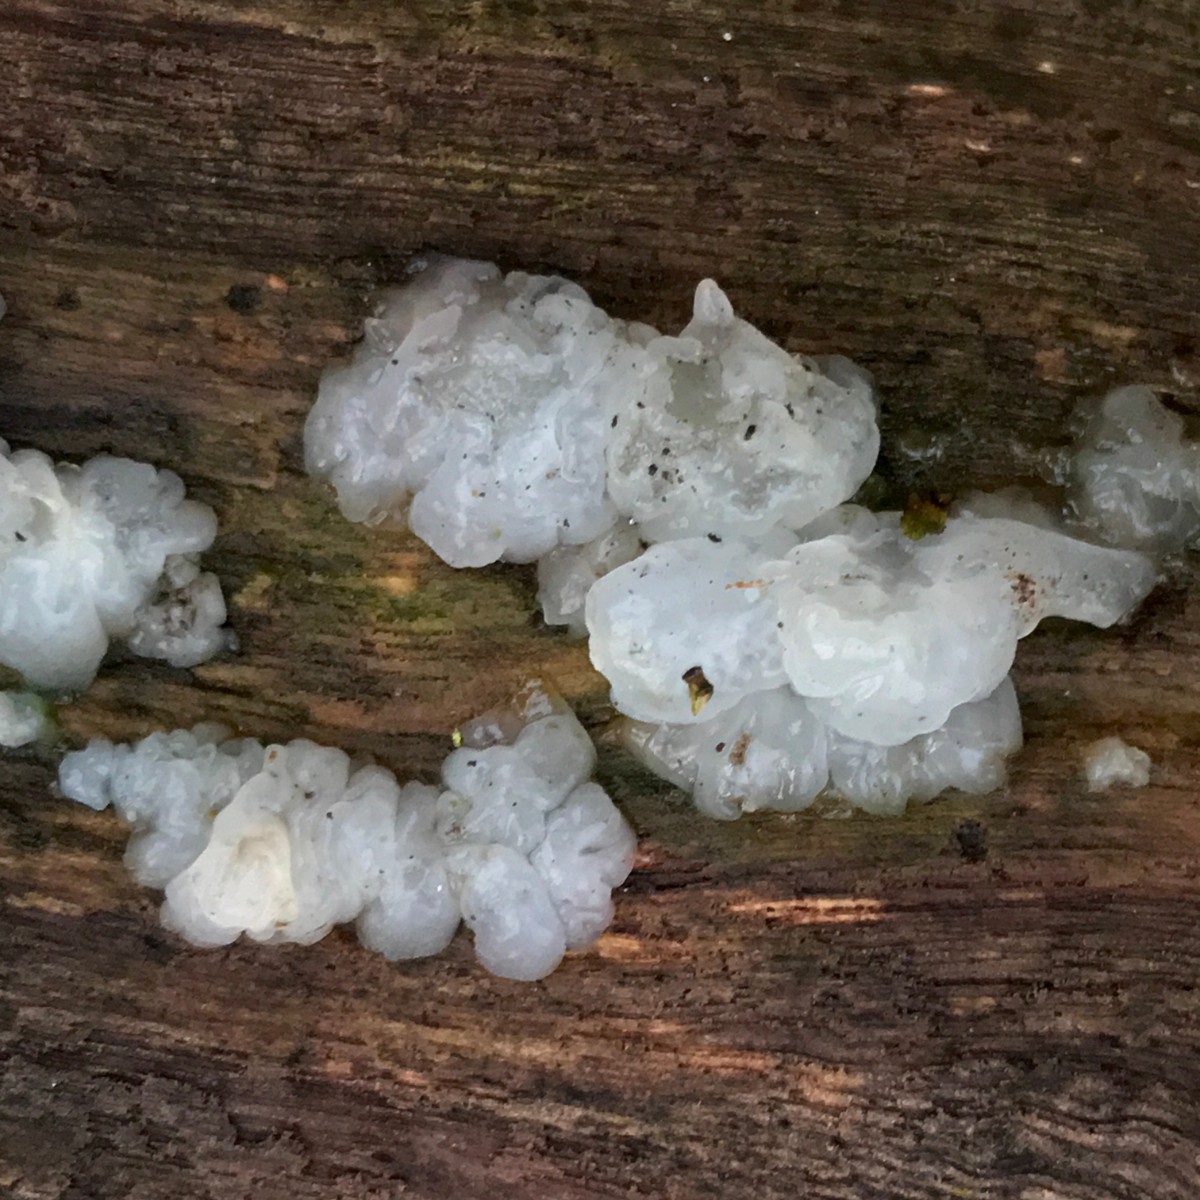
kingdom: Fungi
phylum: Basidiomycota
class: Agaricomycetes
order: Auriculariales
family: Hyaloriaceae
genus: Myxarium
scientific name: Myxarium
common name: bævretop
